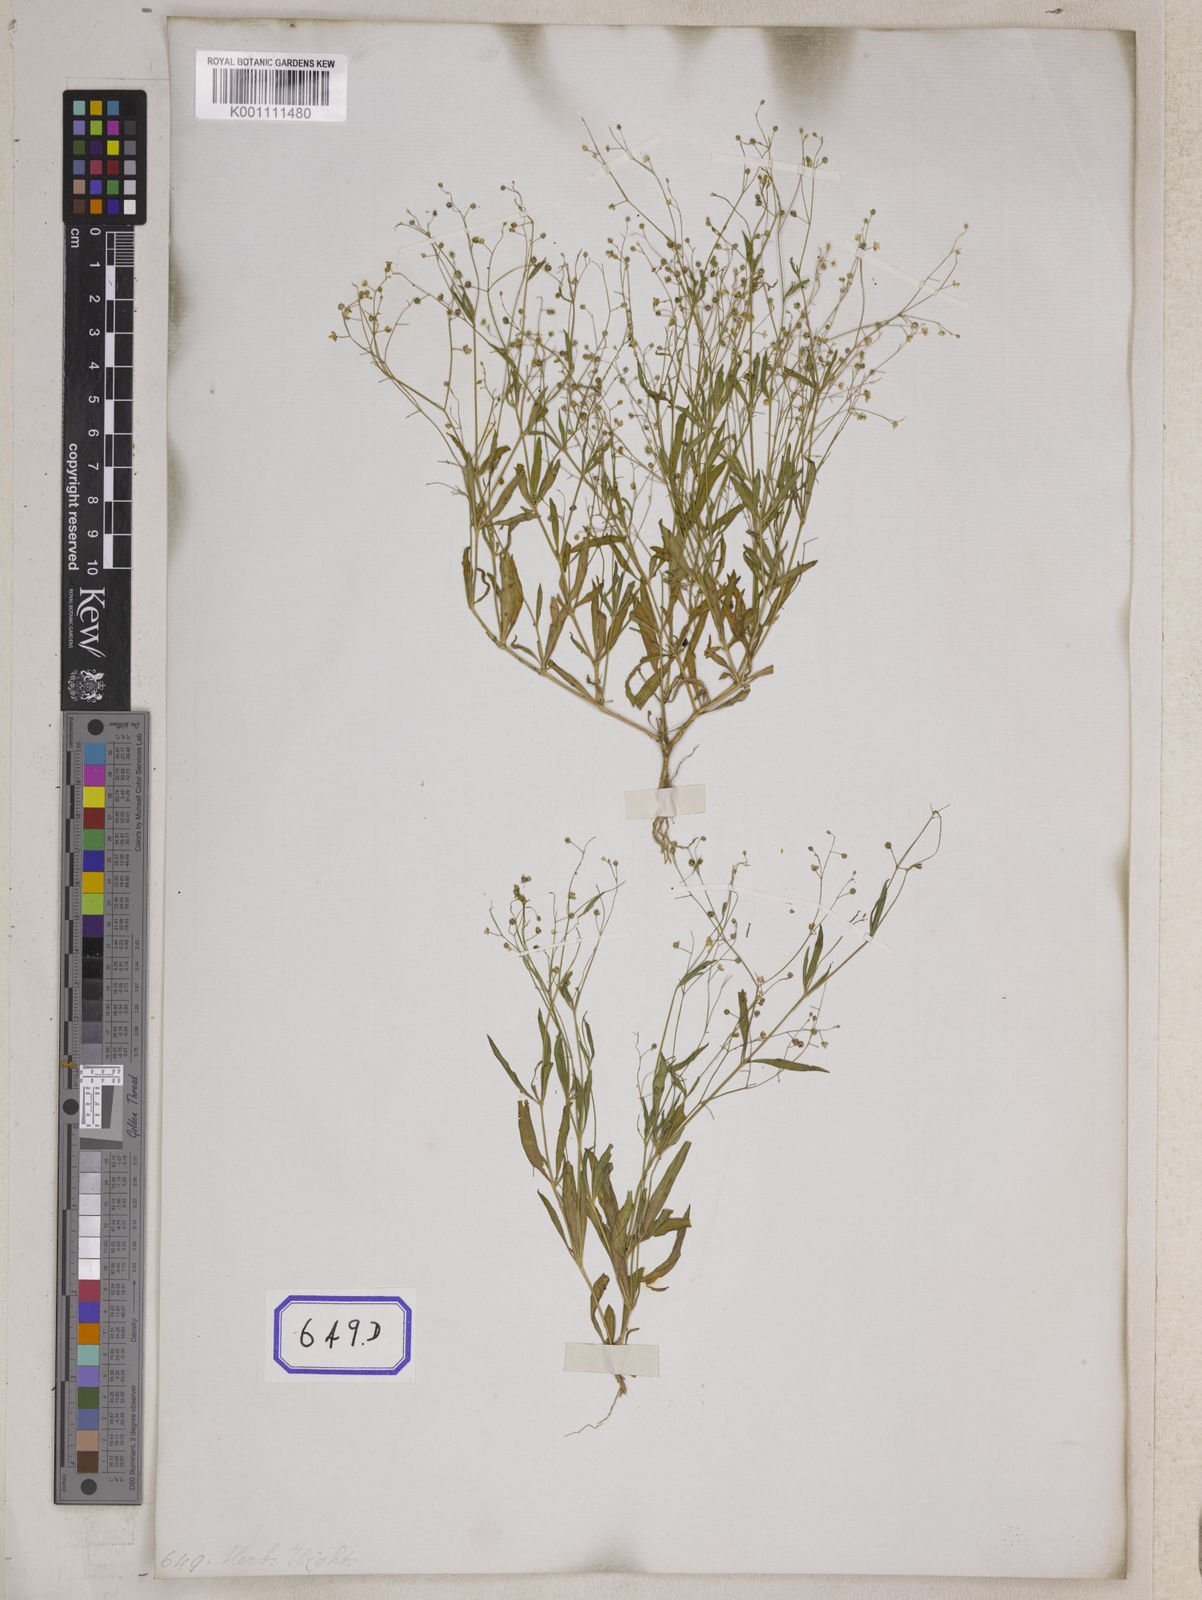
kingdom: Plantae
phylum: Tracheophyta
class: Magnoliopsida
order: Caryophyllales
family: Molluginaceae
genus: Trigastrotheca
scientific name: Trigastrotheca stricta
